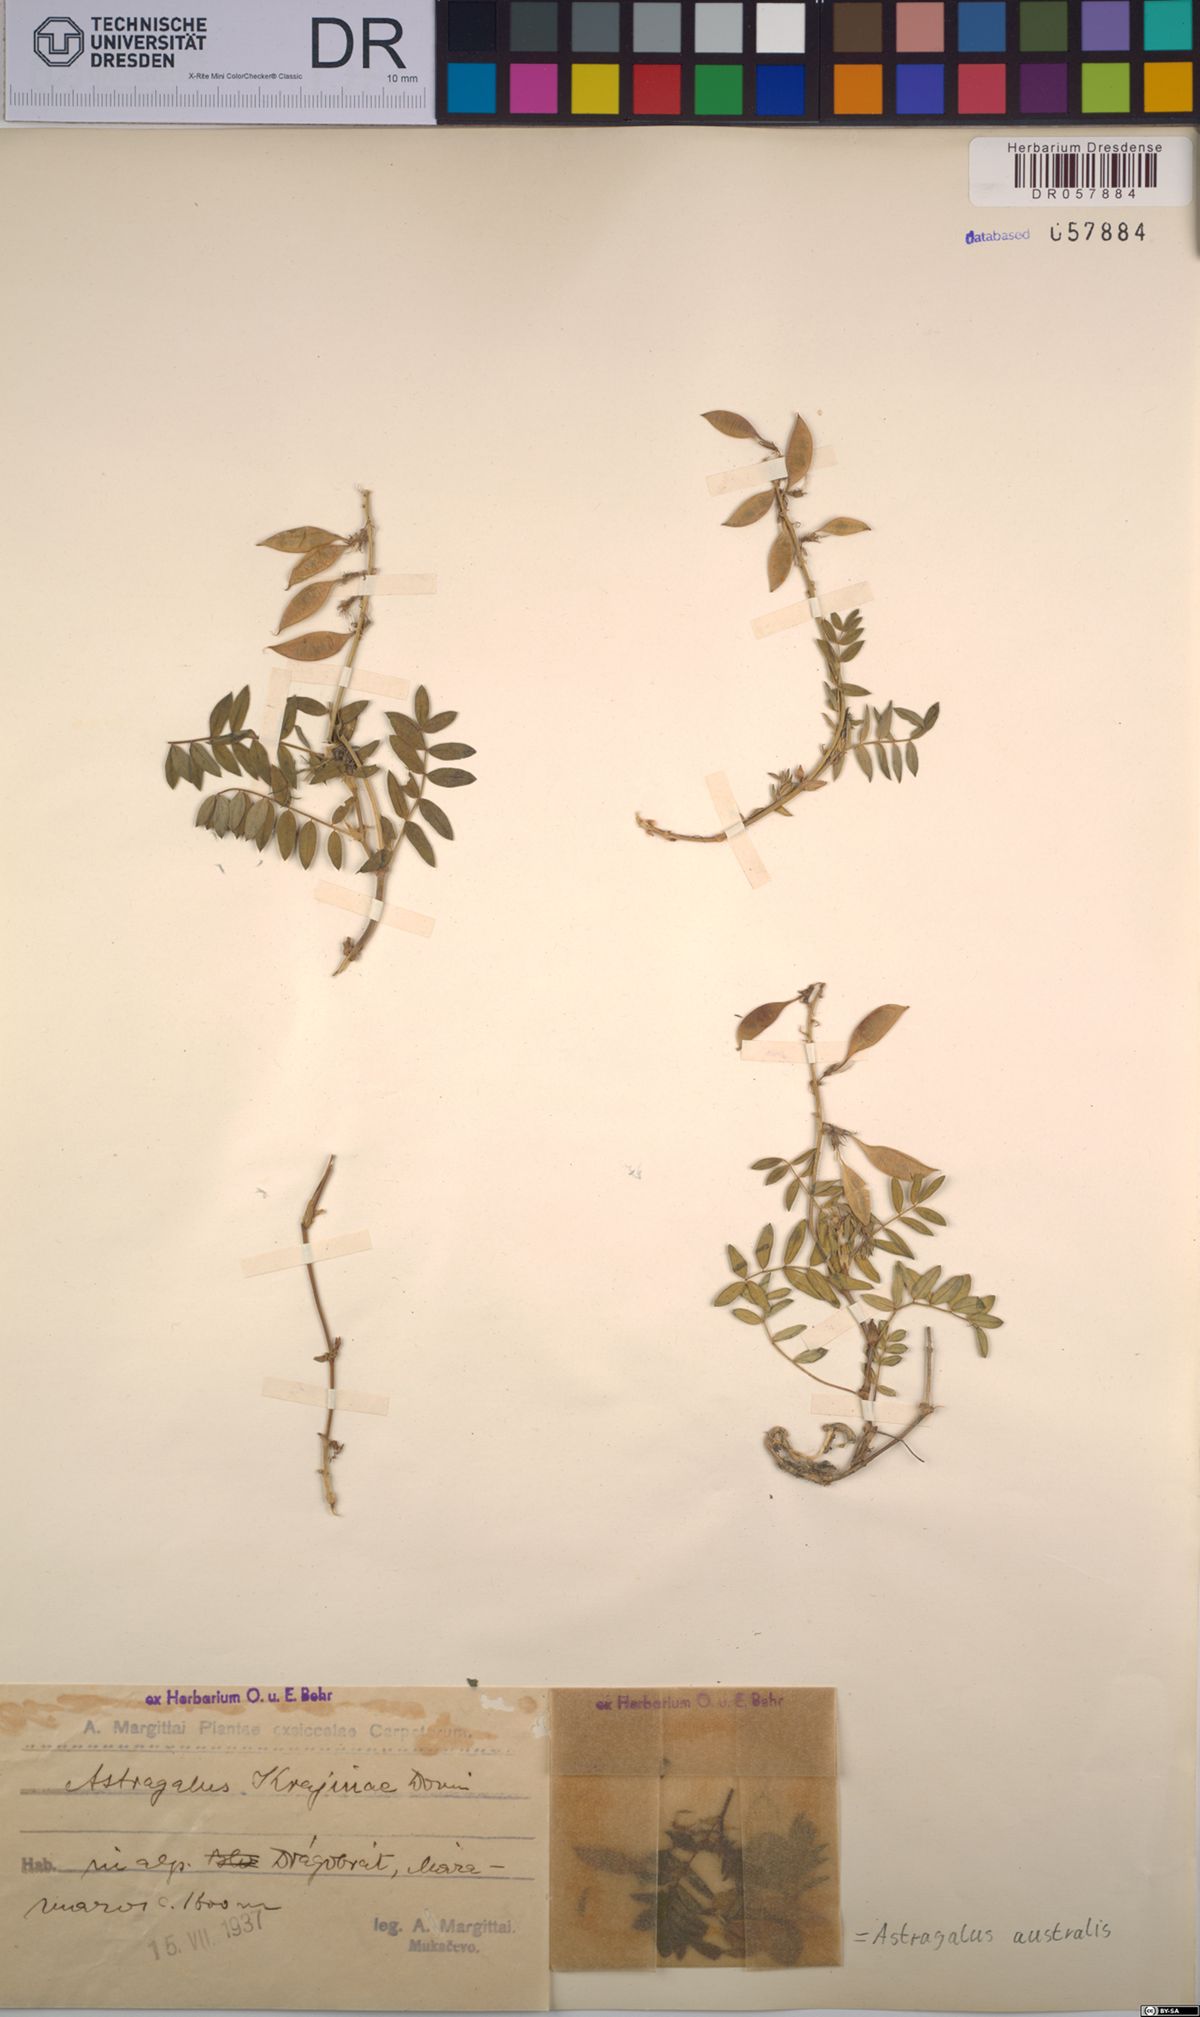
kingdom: Plantae
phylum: Tracheophyta
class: Magnoliopsida
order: Fabales
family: Fabaceae
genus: Astragalus
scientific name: Astragalus australis
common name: Indian milk-vetch
